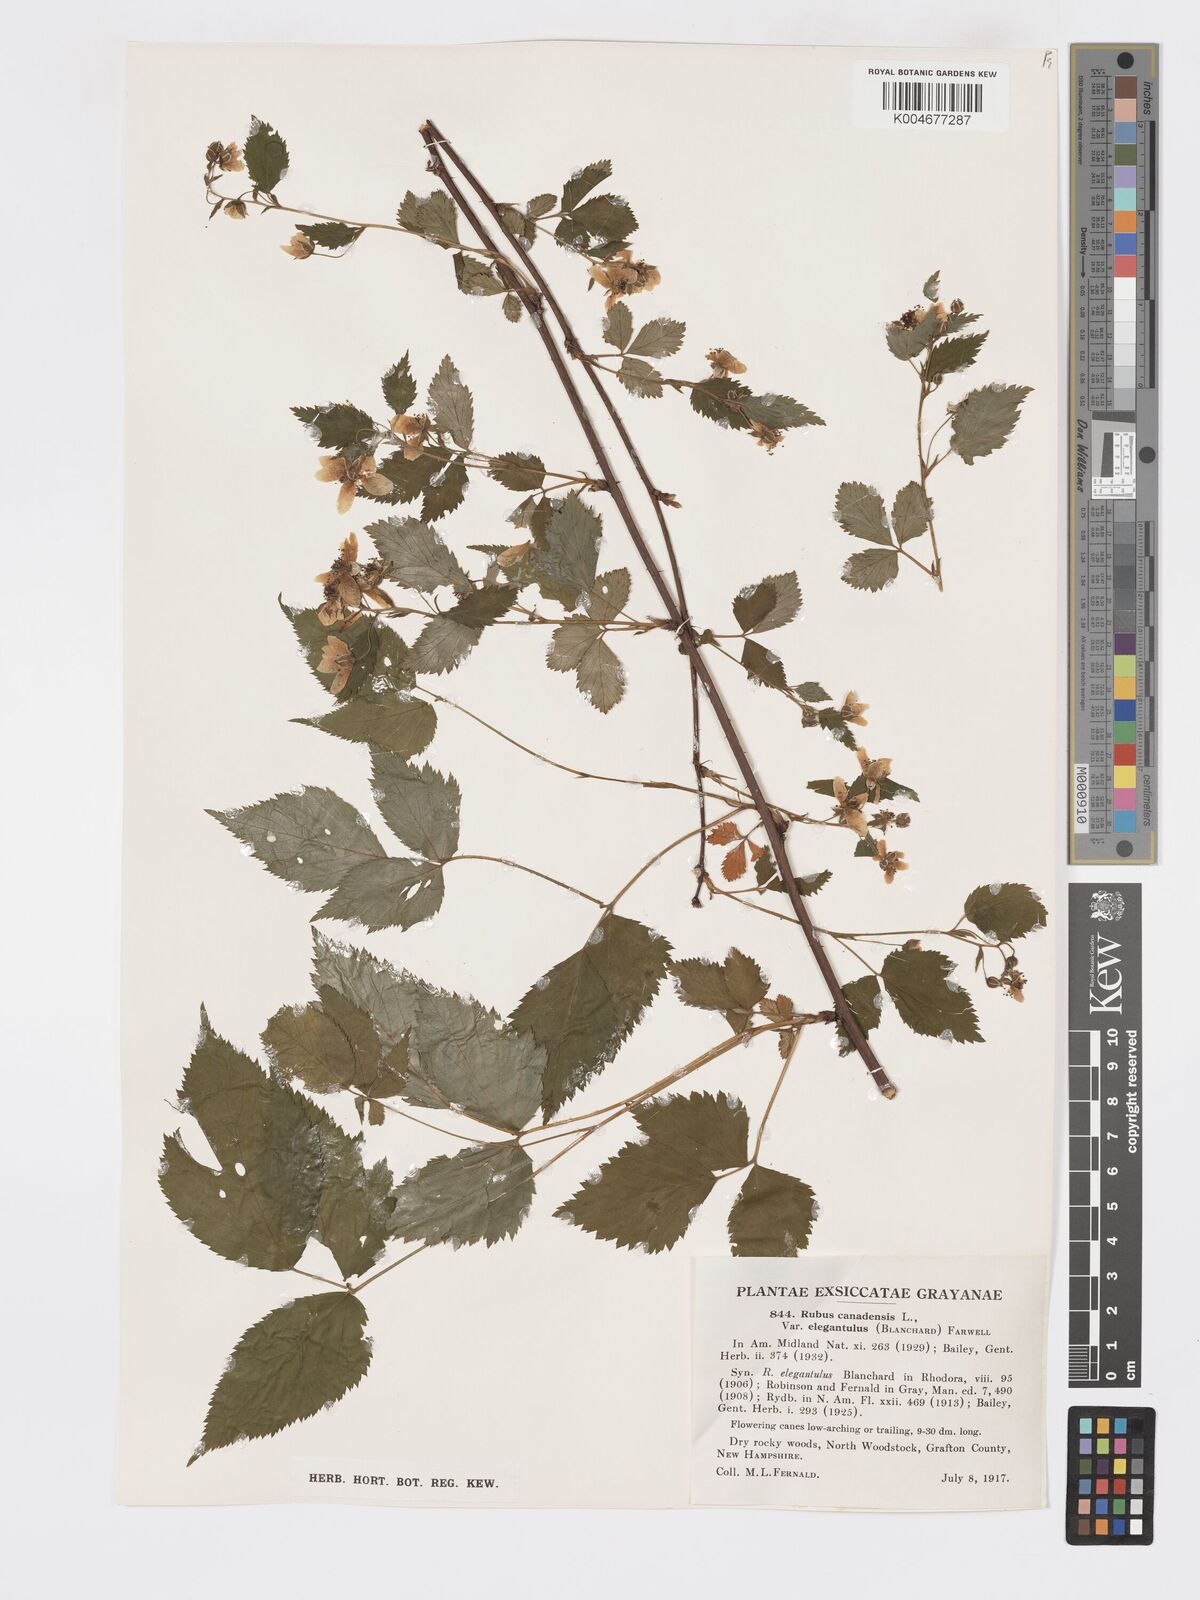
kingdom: Plantae
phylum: Tracheophyta
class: Magnoliopsida
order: Rosales
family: Rosaceae
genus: Rubus
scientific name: Rubus canadensis
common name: Smooth blackberry
